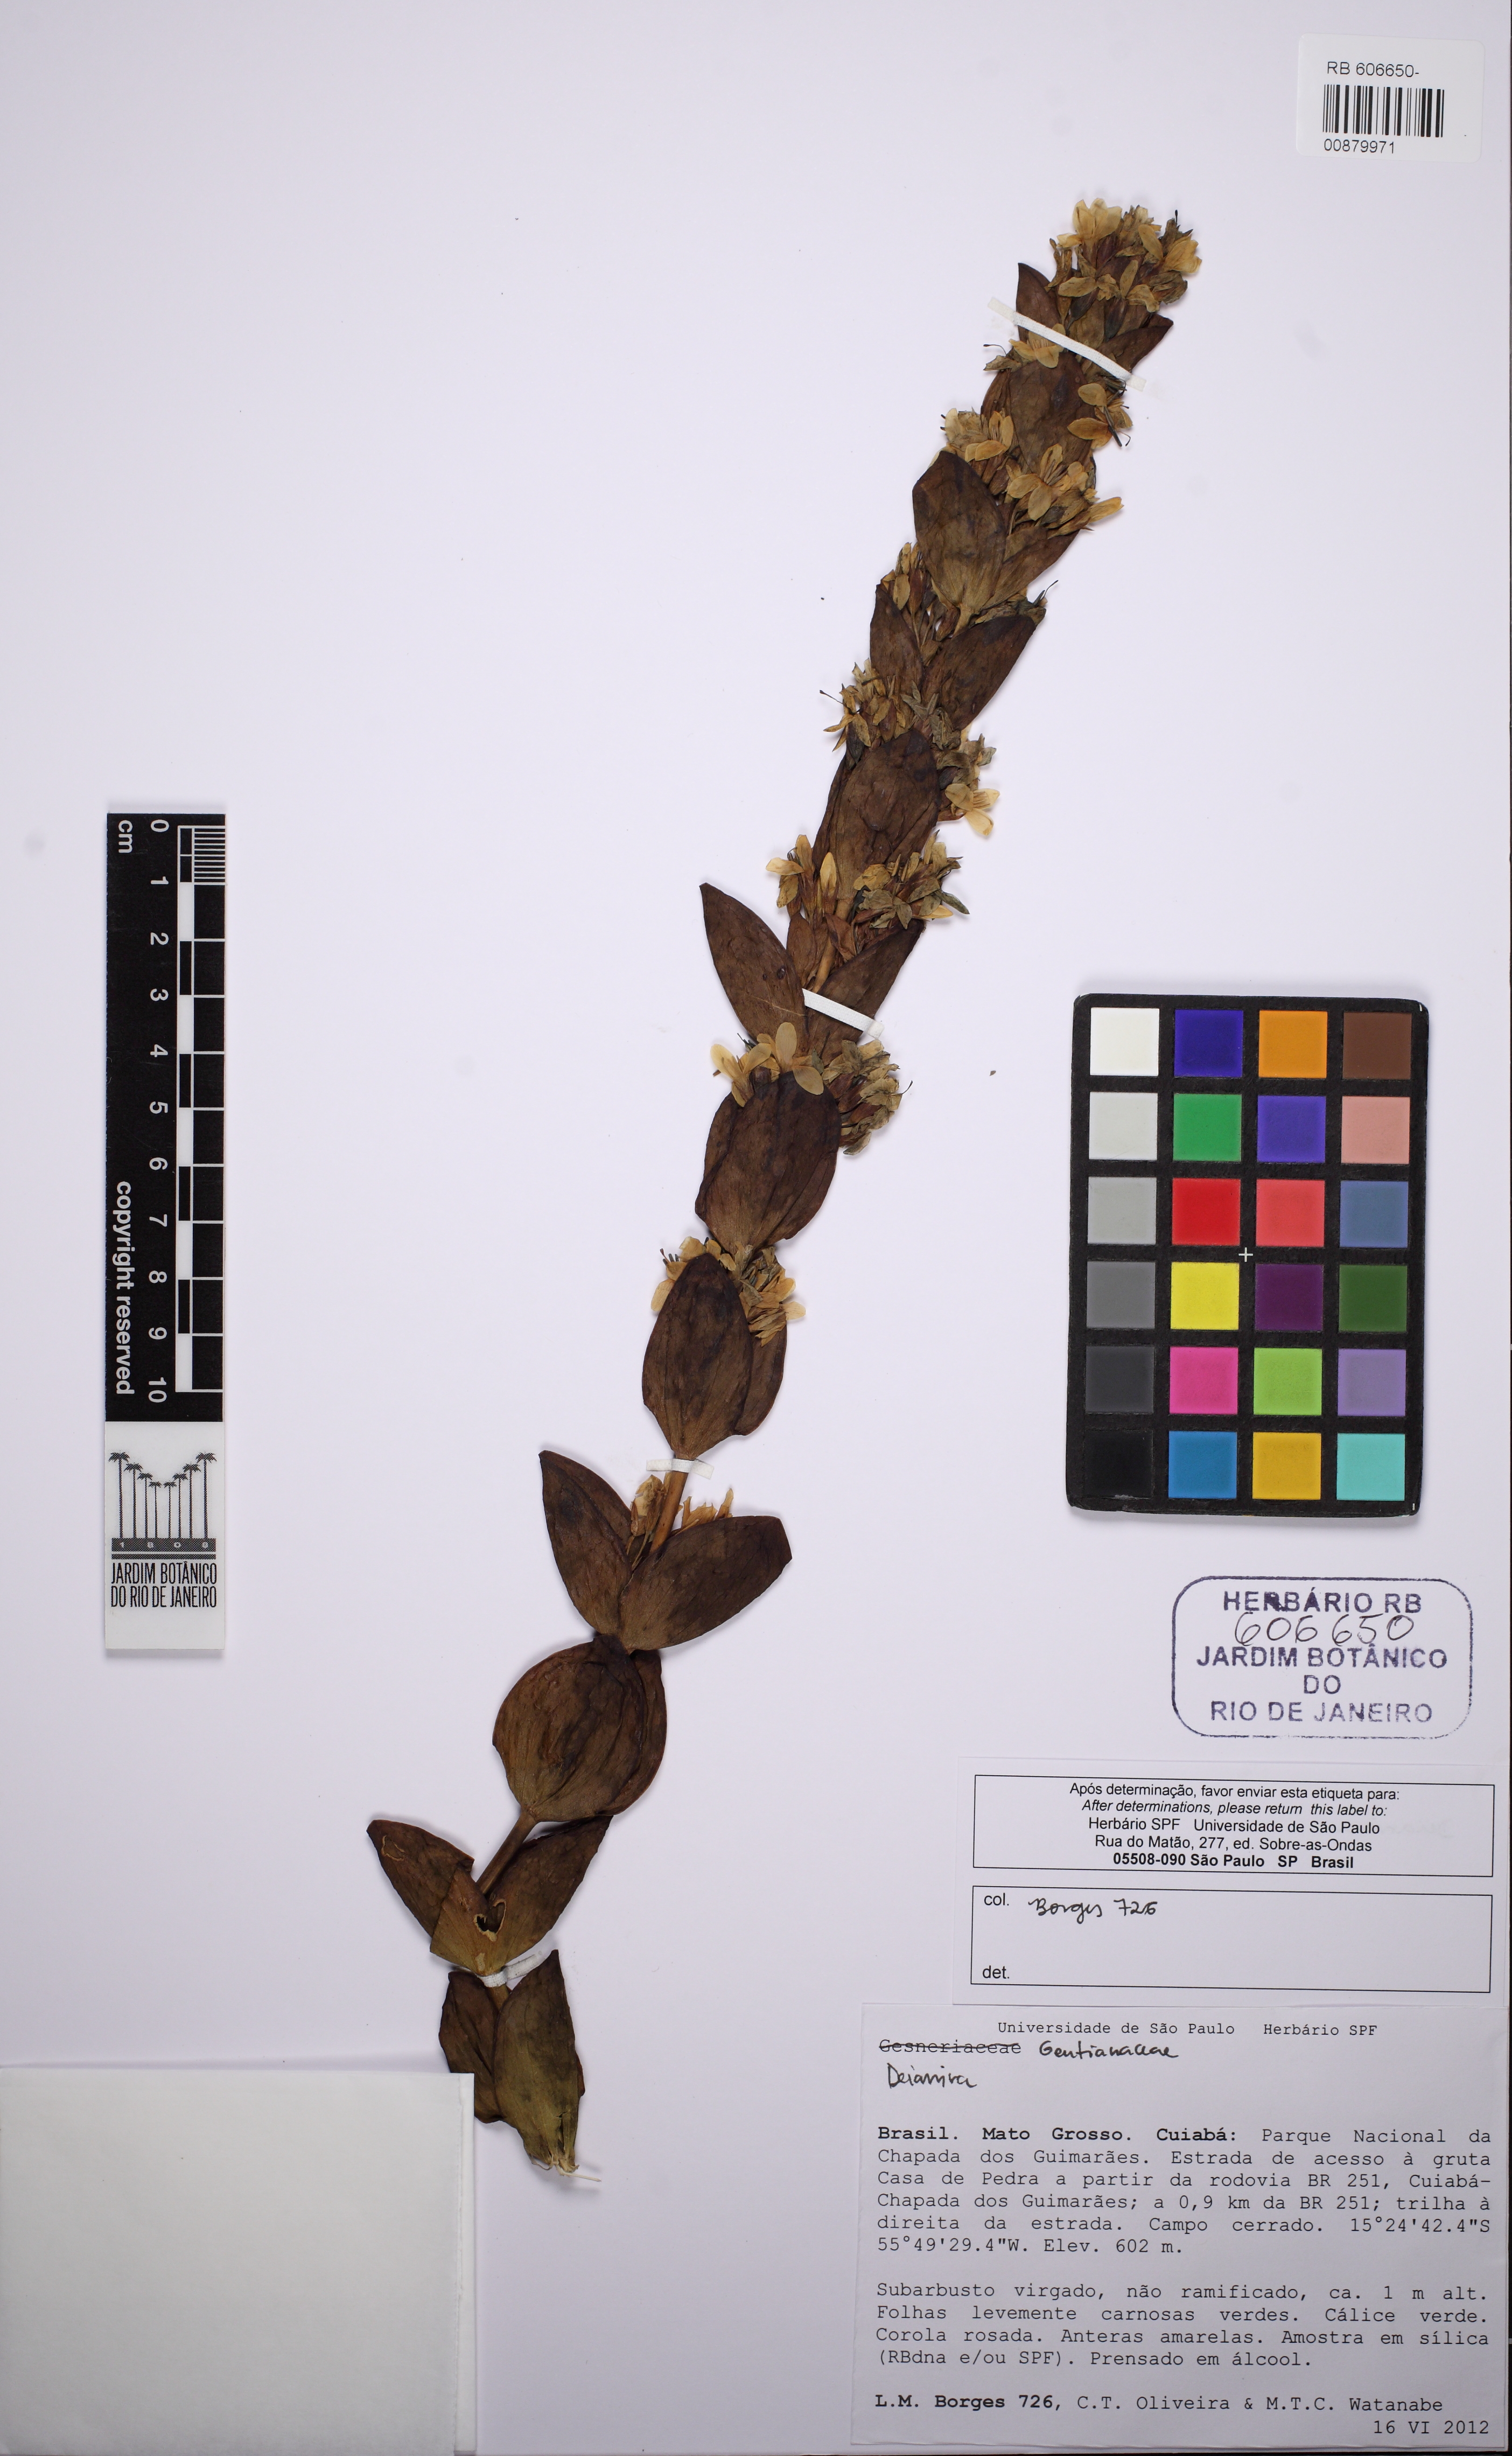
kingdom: Plantae
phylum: Tracheophyta
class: Magnoliopsida
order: Gentianales
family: Gentianaceae
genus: Deianira
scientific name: Deianira
